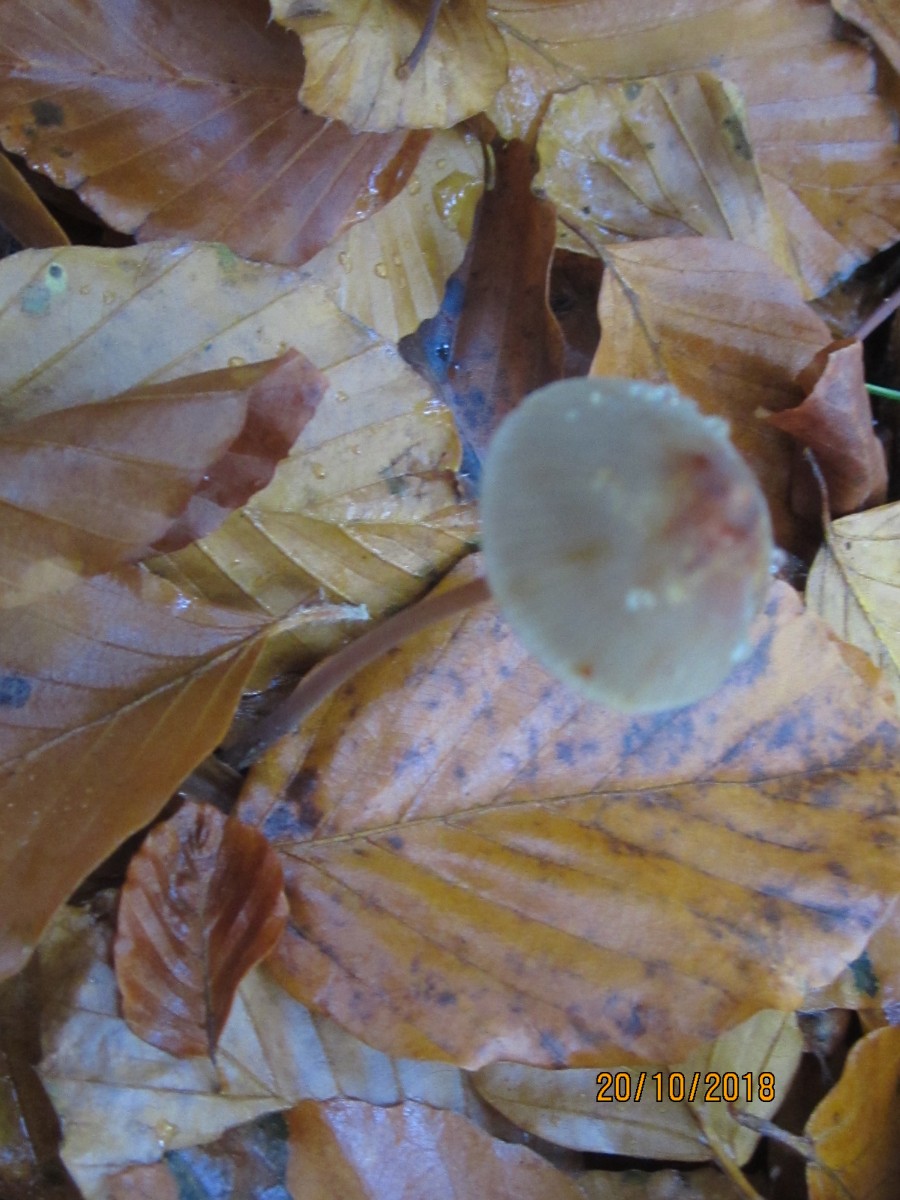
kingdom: Fungi
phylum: Basidiomycota
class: Agaricomycetes
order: Agaricales
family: Mycenaceae
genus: Mycena
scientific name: Mycena crocata
